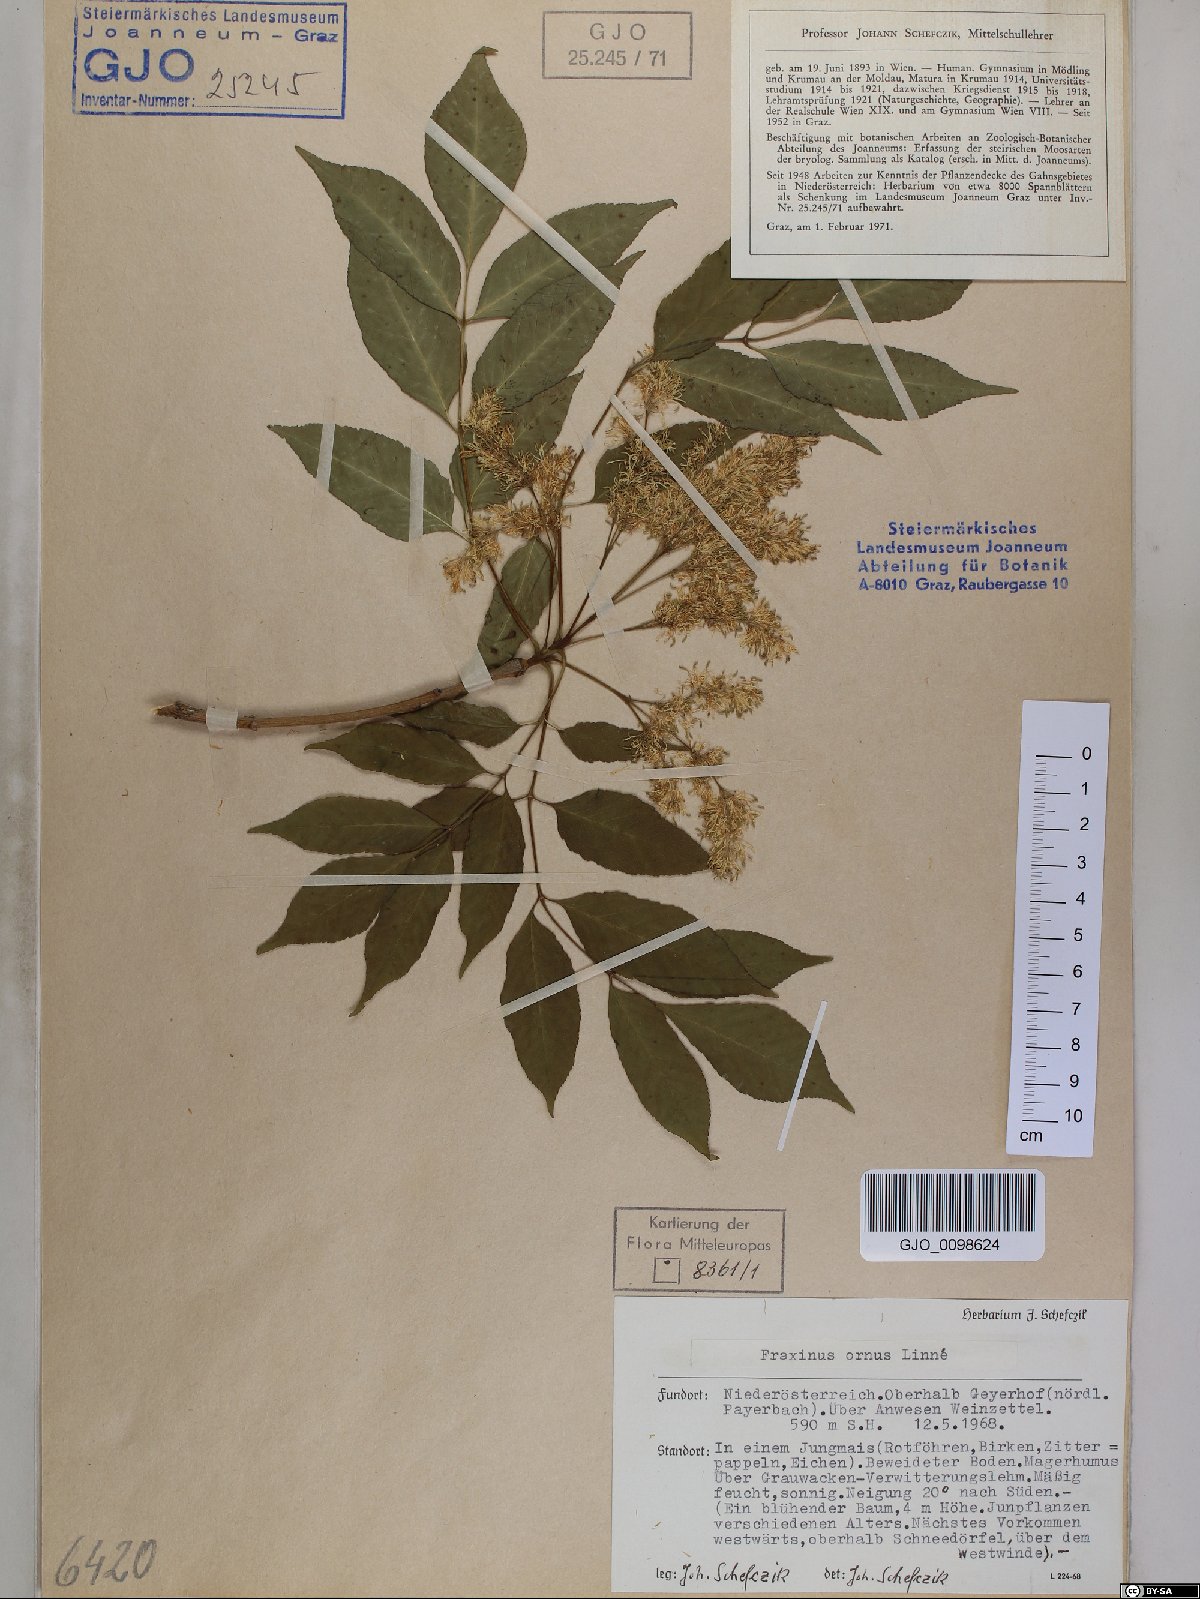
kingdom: Plantae
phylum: Tracheophyta
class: Magnoliopsida
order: Lamiales
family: Oleaceae
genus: Fraxinus
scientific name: Fraxinus ornus
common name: Manna ash
